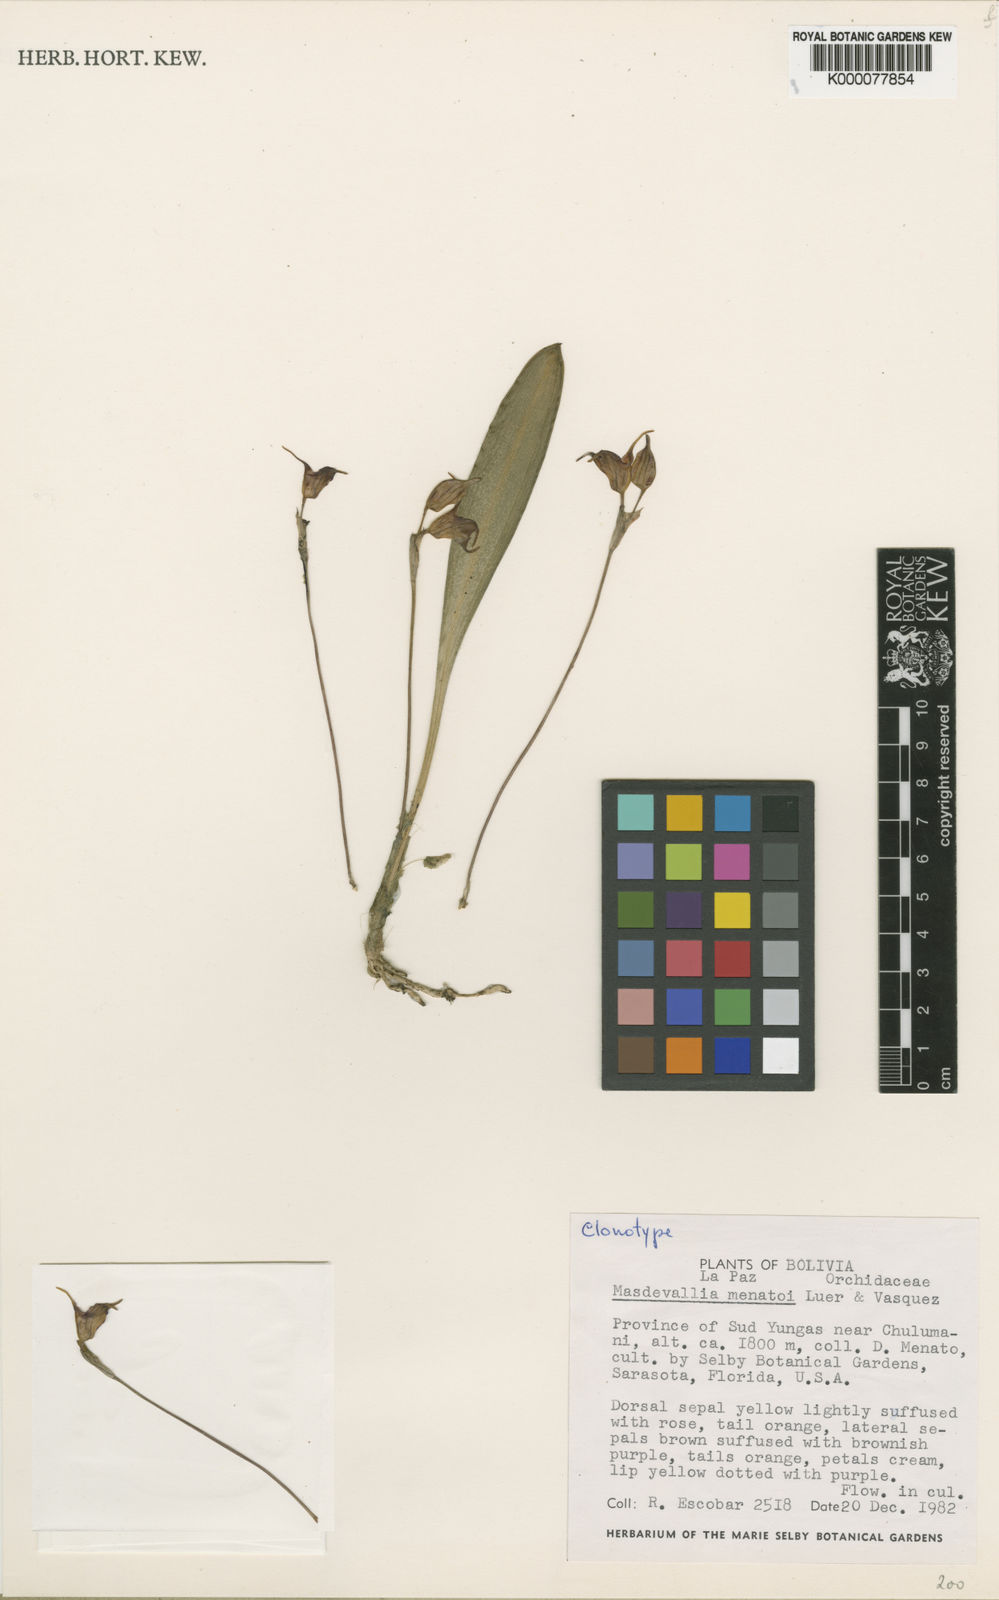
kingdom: Plantae
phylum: Tracheophyta
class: Liliopsida
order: Asparagales
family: Orchidaceae
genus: Masdevallia
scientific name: Masdevallia
